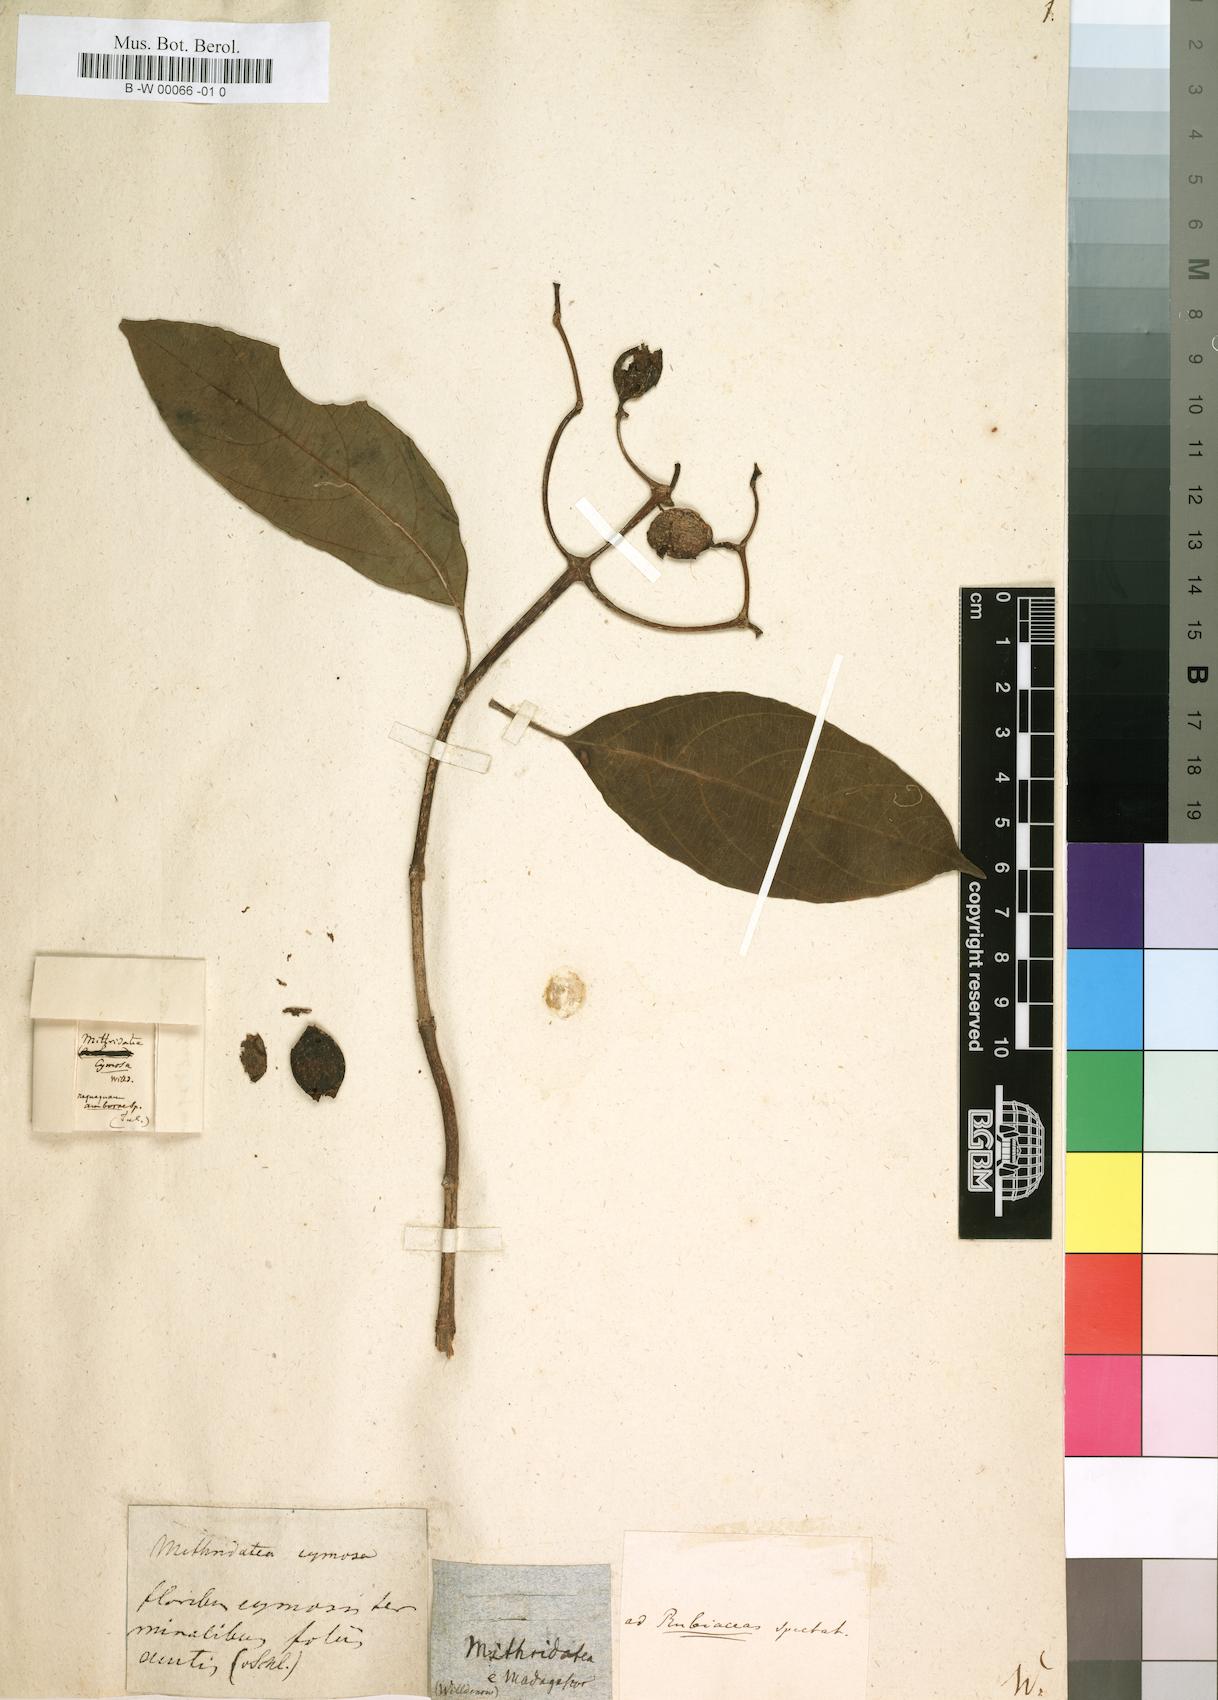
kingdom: Plantae
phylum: Tracheophyta
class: Magnoliopsida
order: Laurales
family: Monimiaceae
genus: Tambourissa
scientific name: Tambourissa Mithridatea cymosa
